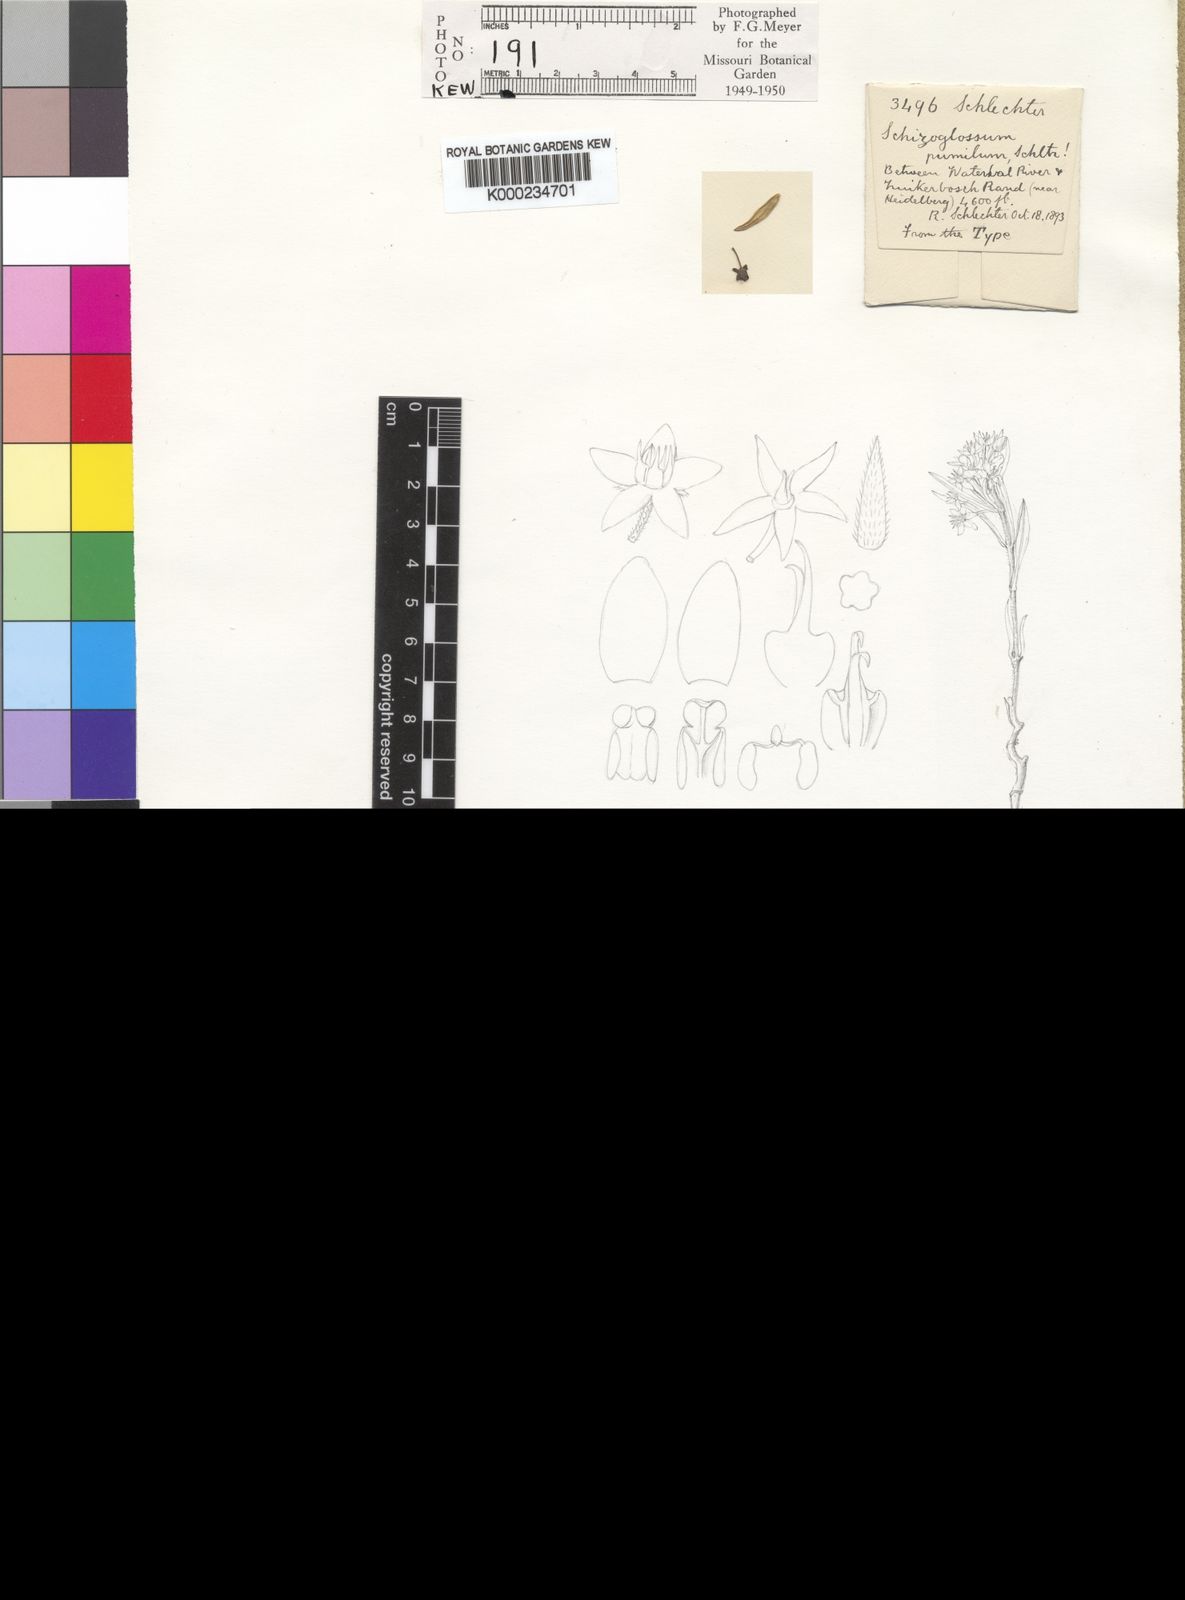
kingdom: Plantae
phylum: Tracheophyta
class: Magnoliopsida
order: Gentianales
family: Apocynaceae
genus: Aspidoglossum
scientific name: Aspidoglossum ovalifolium
